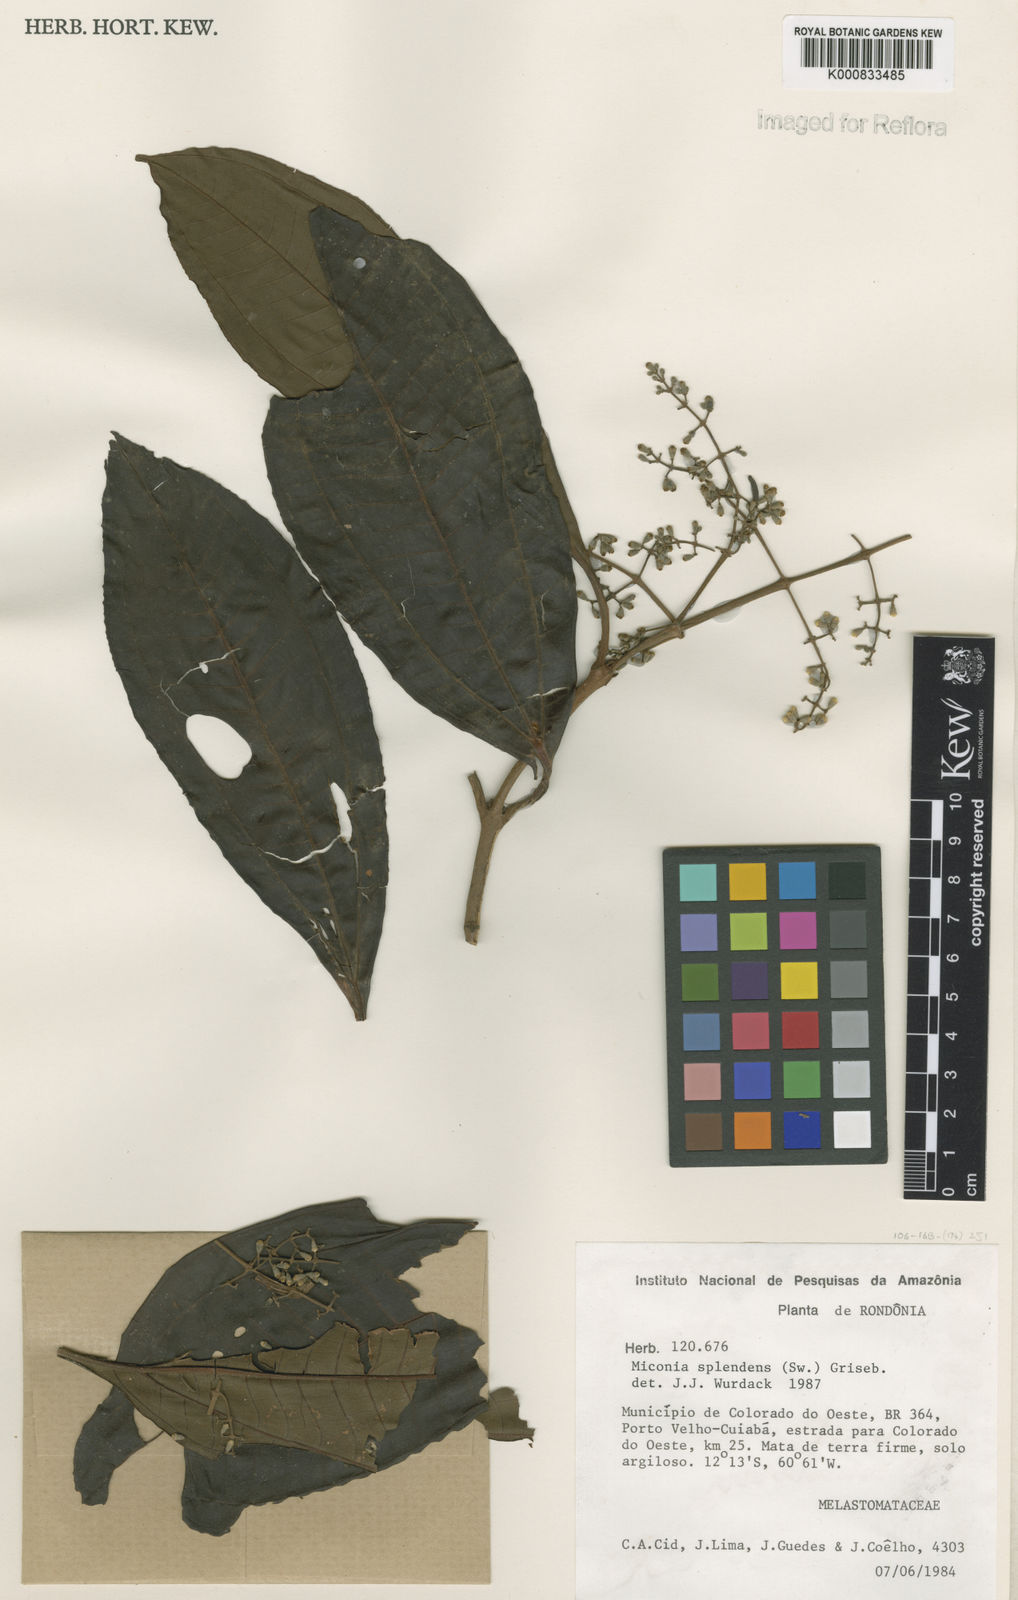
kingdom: Plantae
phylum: Tracheophyta
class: Magnoliopsida
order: Myrtales
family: Melastomataceae
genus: Miconia
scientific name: Miconia splendens
